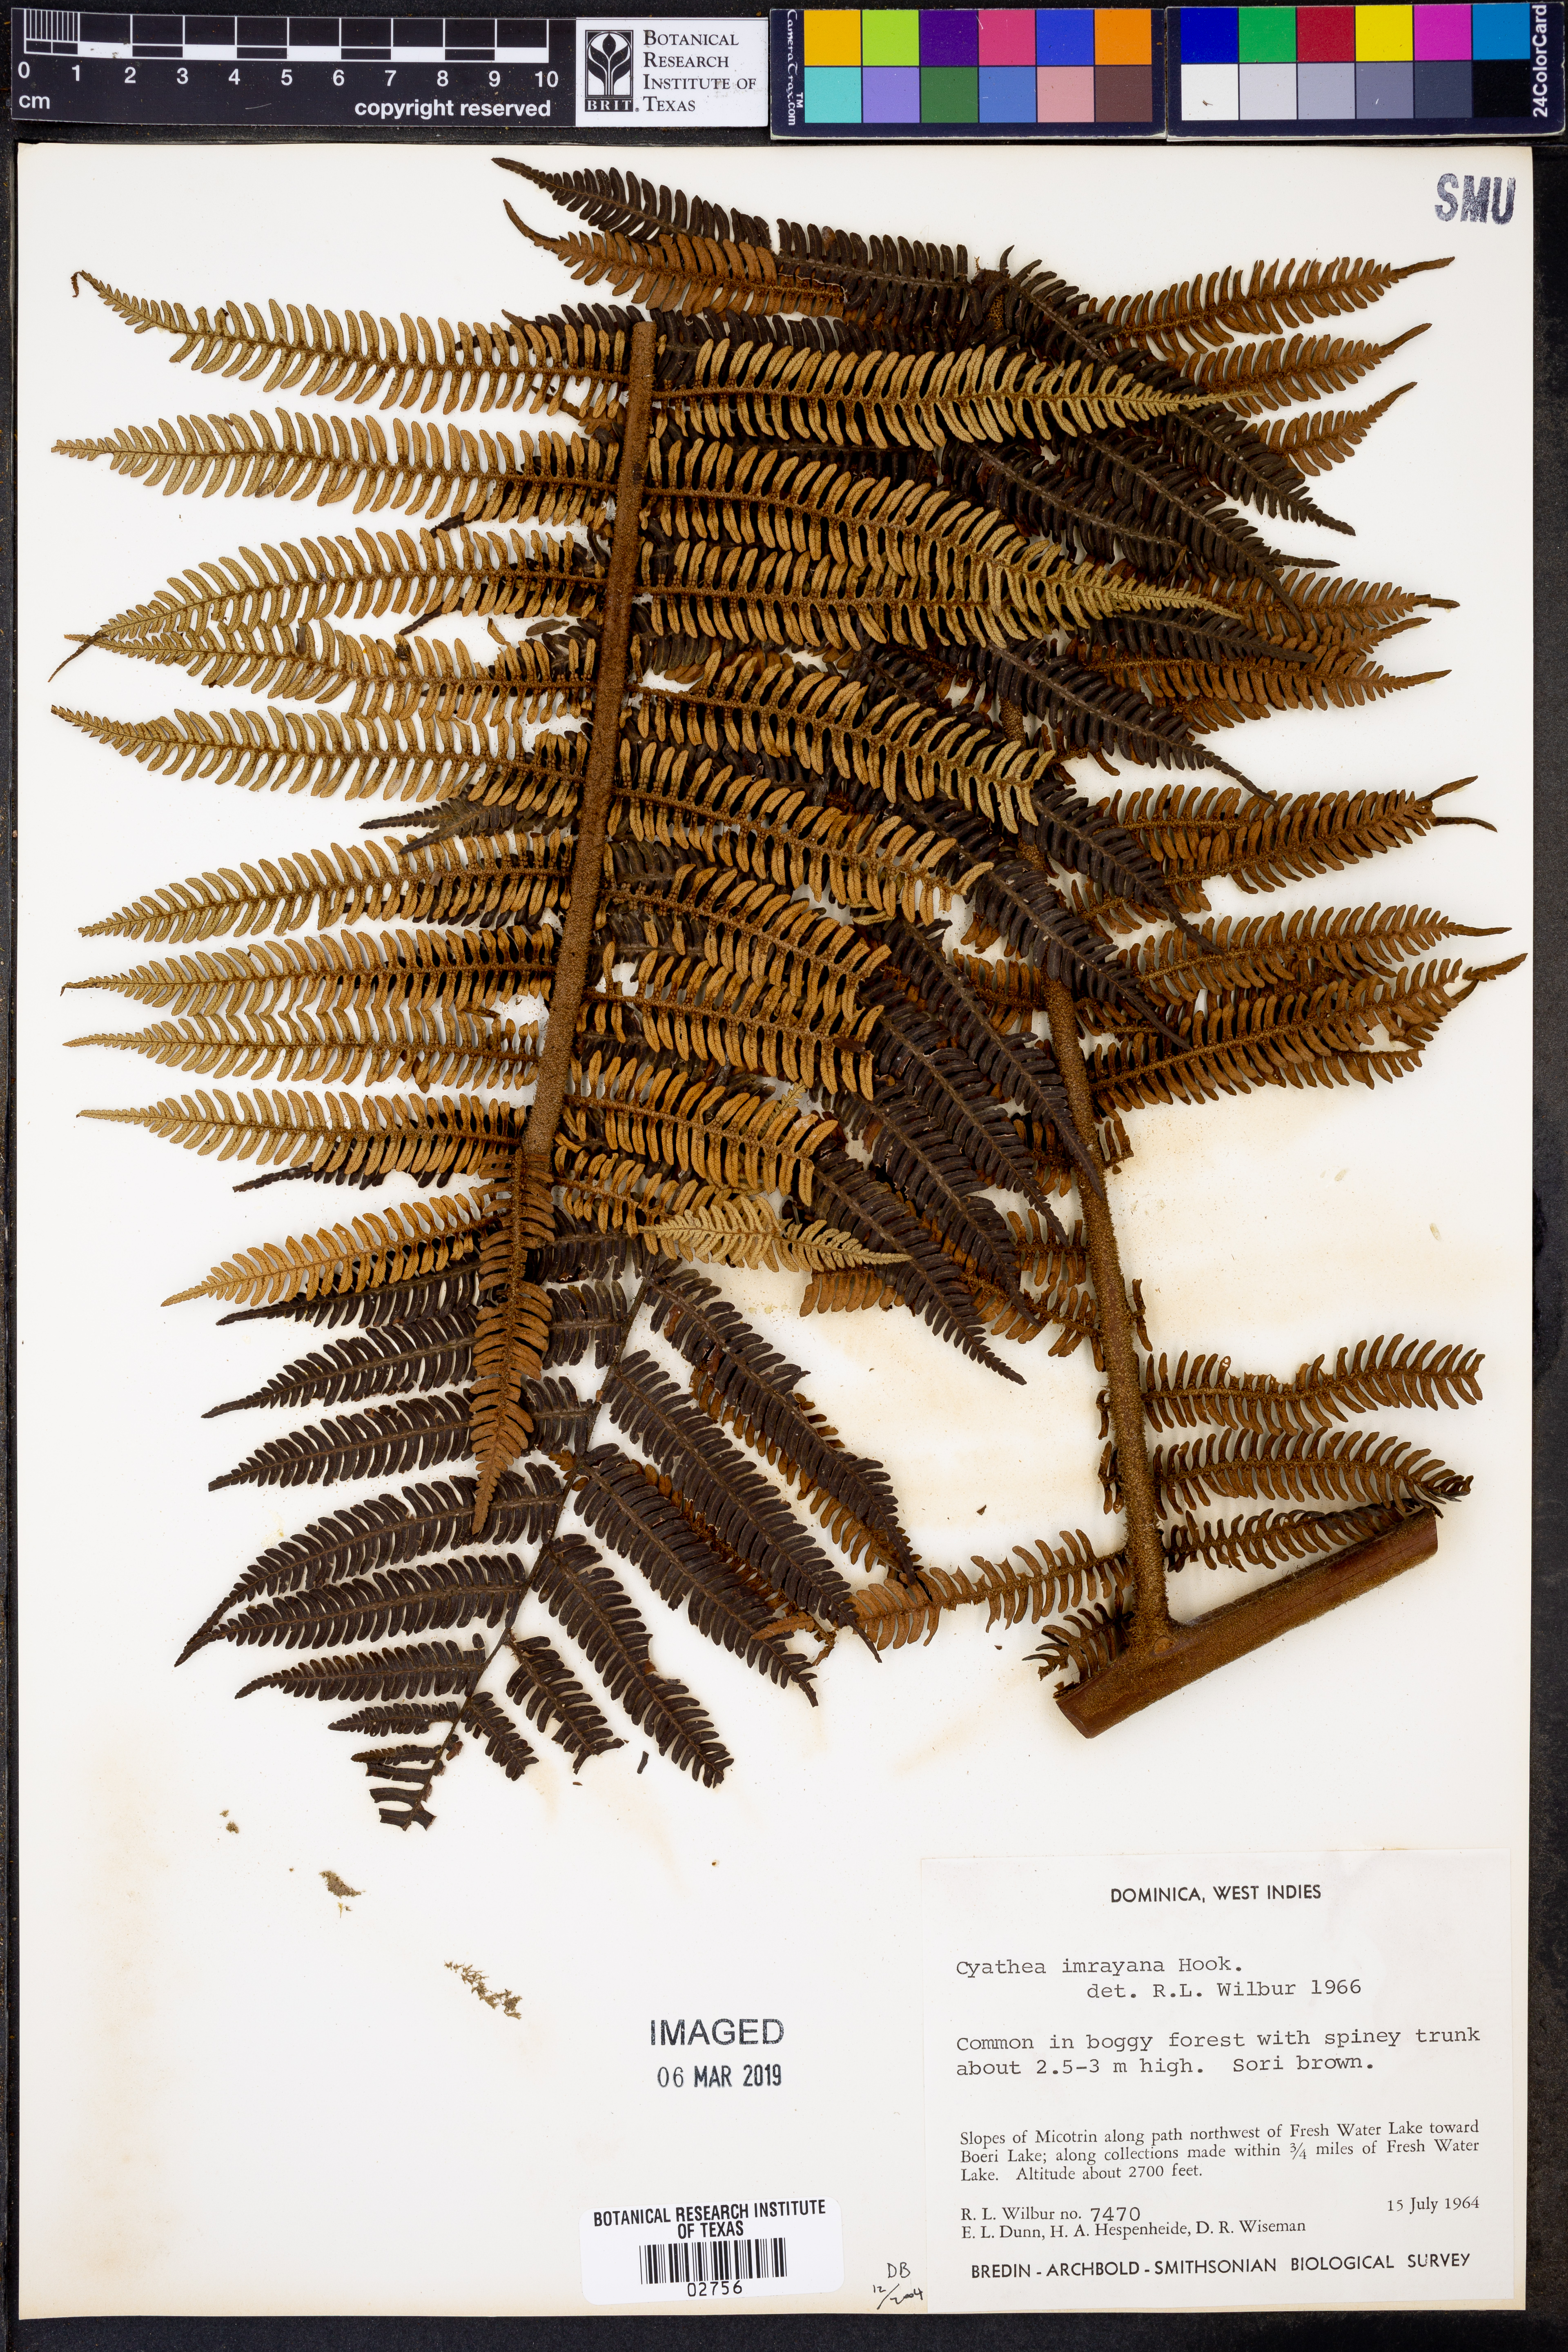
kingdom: Plantae
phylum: Tracheophyta
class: Polypodiopsida
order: Cyatheales
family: Cyatheaceae
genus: Cyathea
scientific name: Cyathea imrayana
